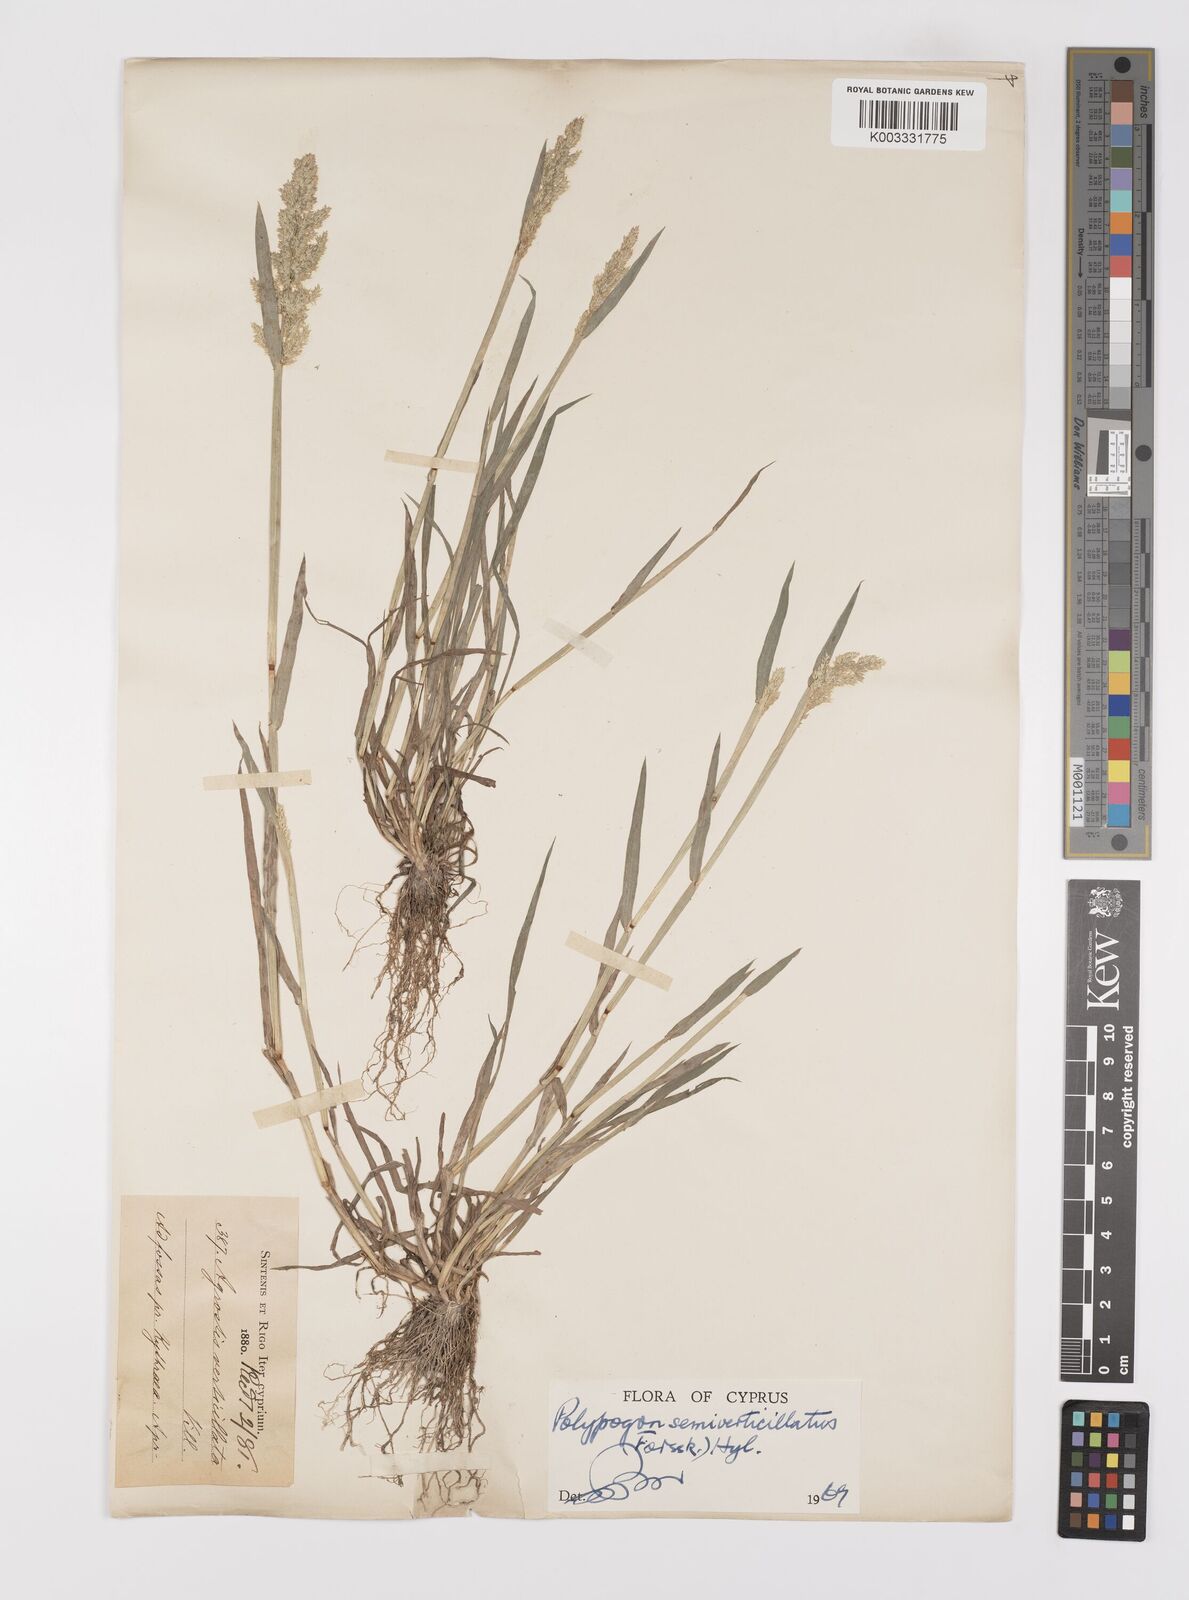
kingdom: Plantae
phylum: Tracheophyta
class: Liliopsida
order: Poales
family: Poaceae
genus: Polypogon
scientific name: Polypogon viridis
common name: Water bent
